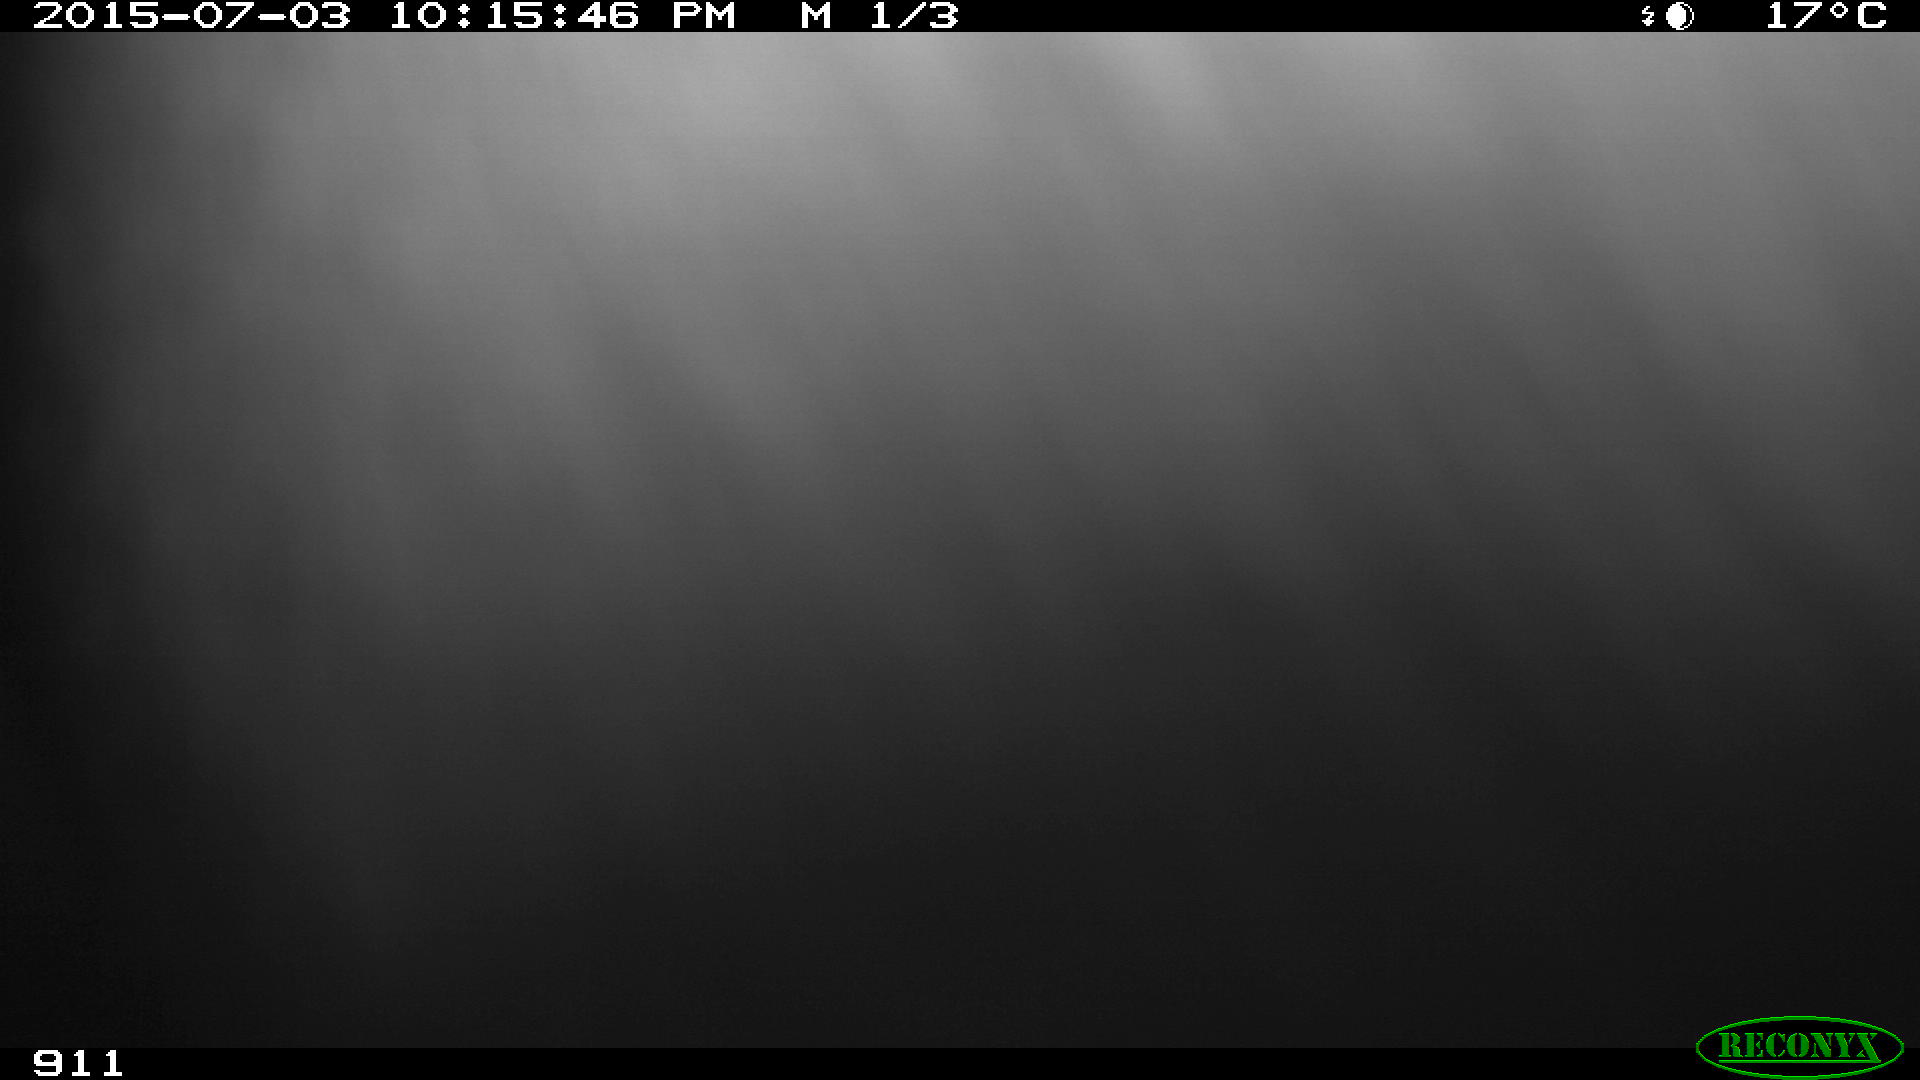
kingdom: Animalia
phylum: Chordata
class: Mammalia
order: Artiodactyla
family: Bovidae
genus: Bos
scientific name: Bos taurus
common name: Domesticated cattle
